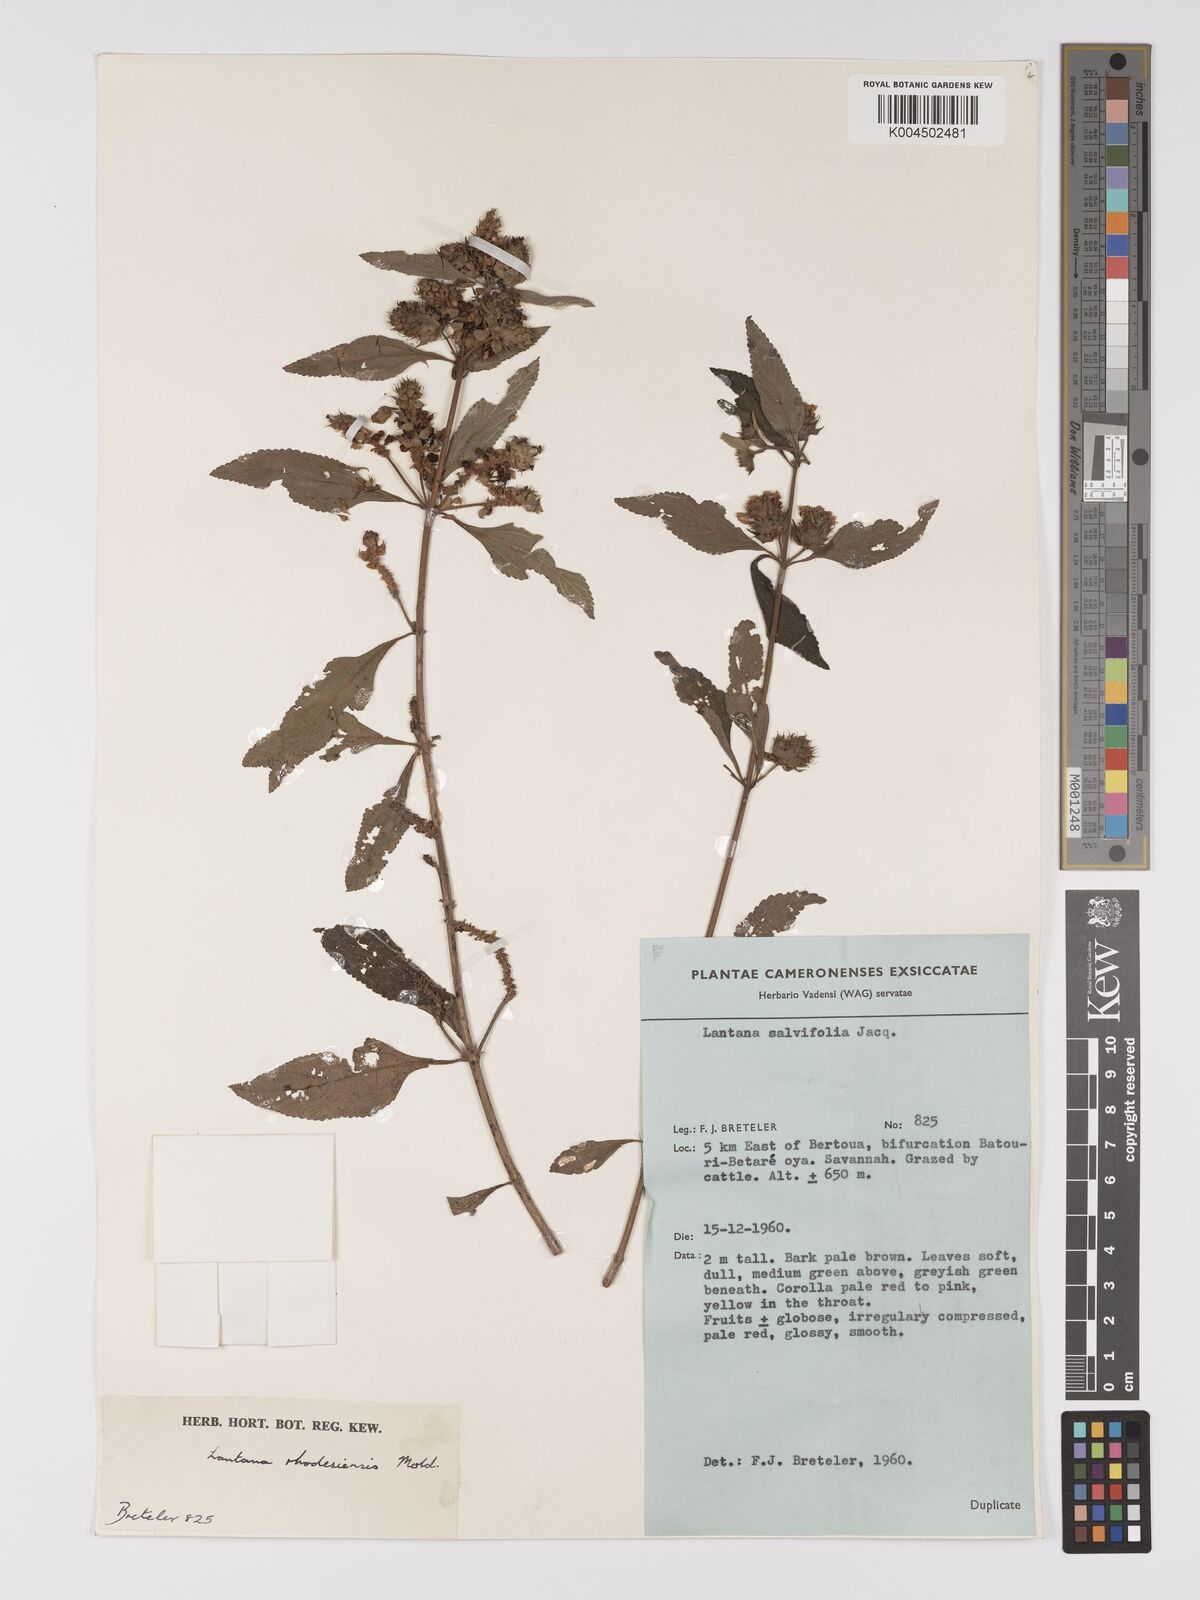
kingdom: Plantae
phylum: Tracheophyta
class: Magnoliopsida
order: Lamiales
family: Verbenaceae
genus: Lantana
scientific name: Lantana ukambensis
